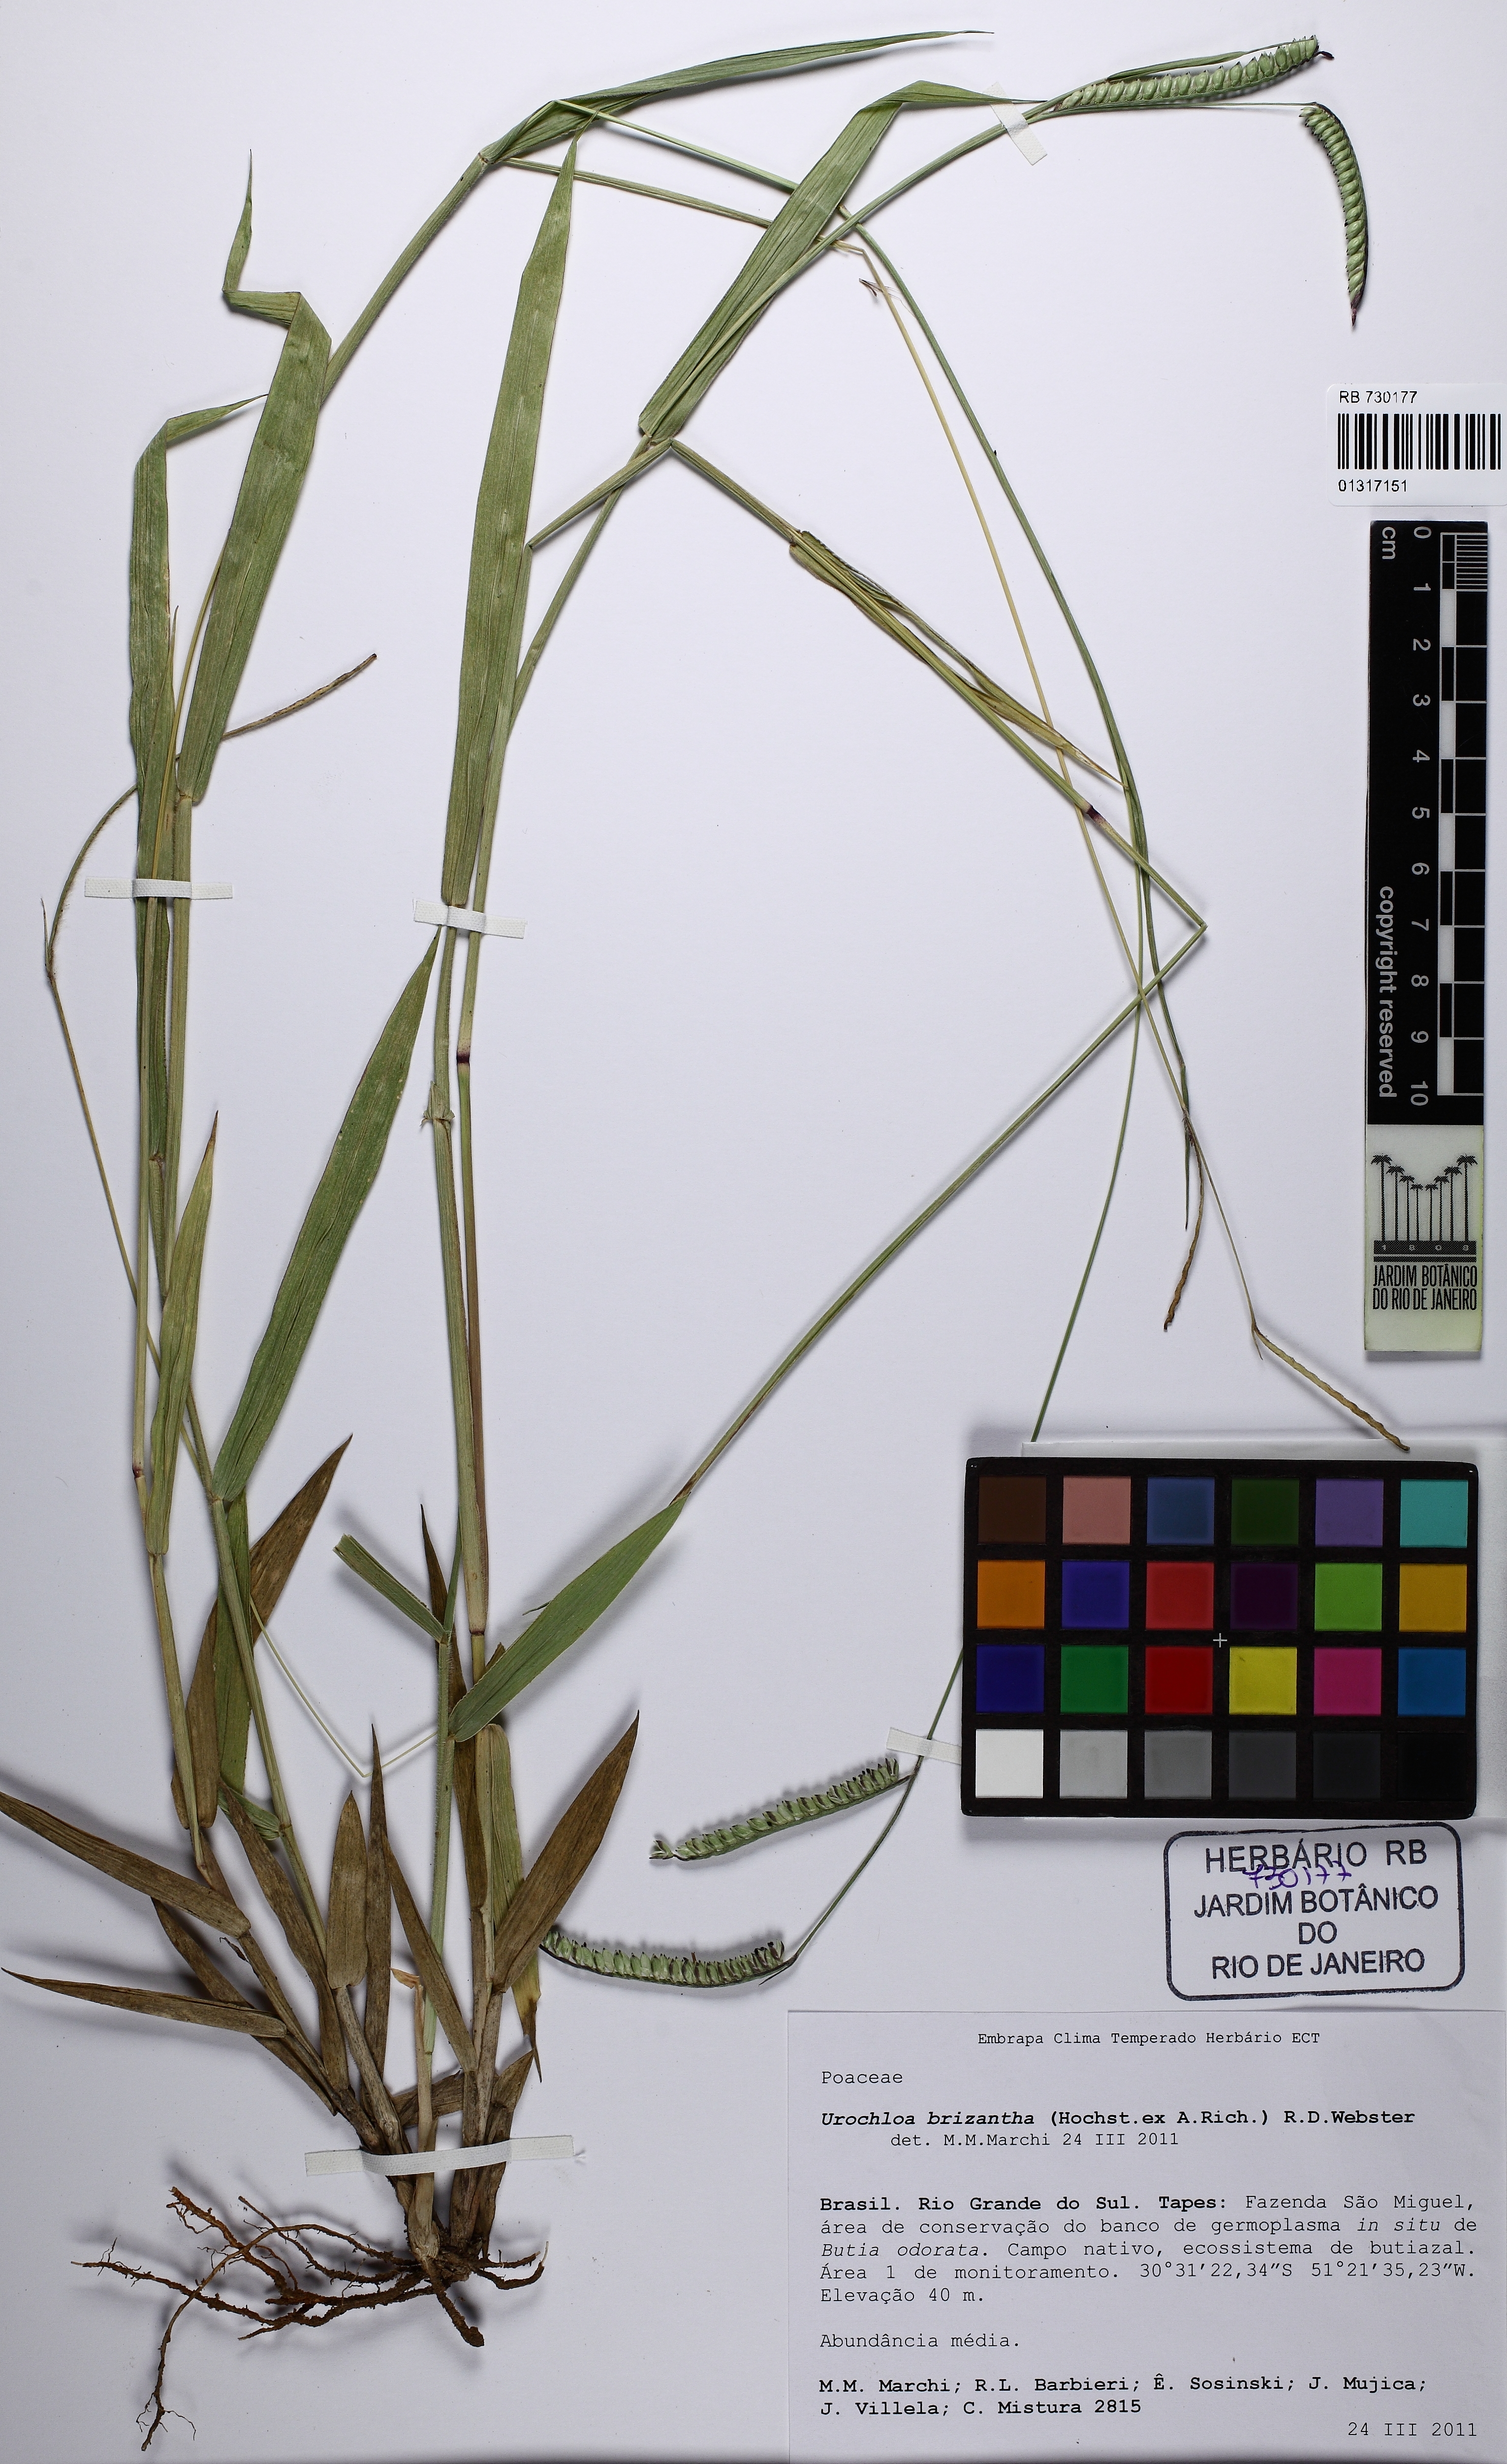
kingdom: Plantae
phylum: Tracheophyta
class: Liliopsida
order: Poales
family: Poaceae
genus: Urochloa
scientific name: Urochloa brizantha
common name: Palisade signalgrass
